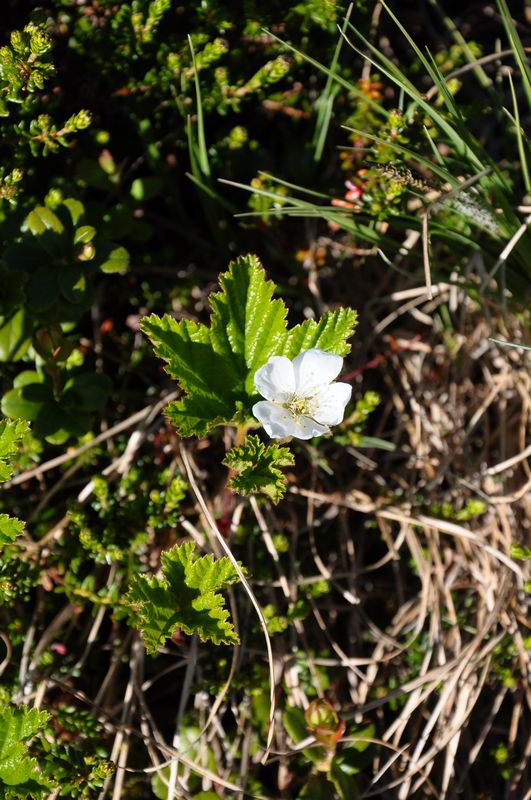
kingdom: Plantae
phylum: Tracheophyta
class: Magnoliopsida
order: Rosales
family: Rosaceae
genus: Rubus
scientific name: Rubus chamaemorus
